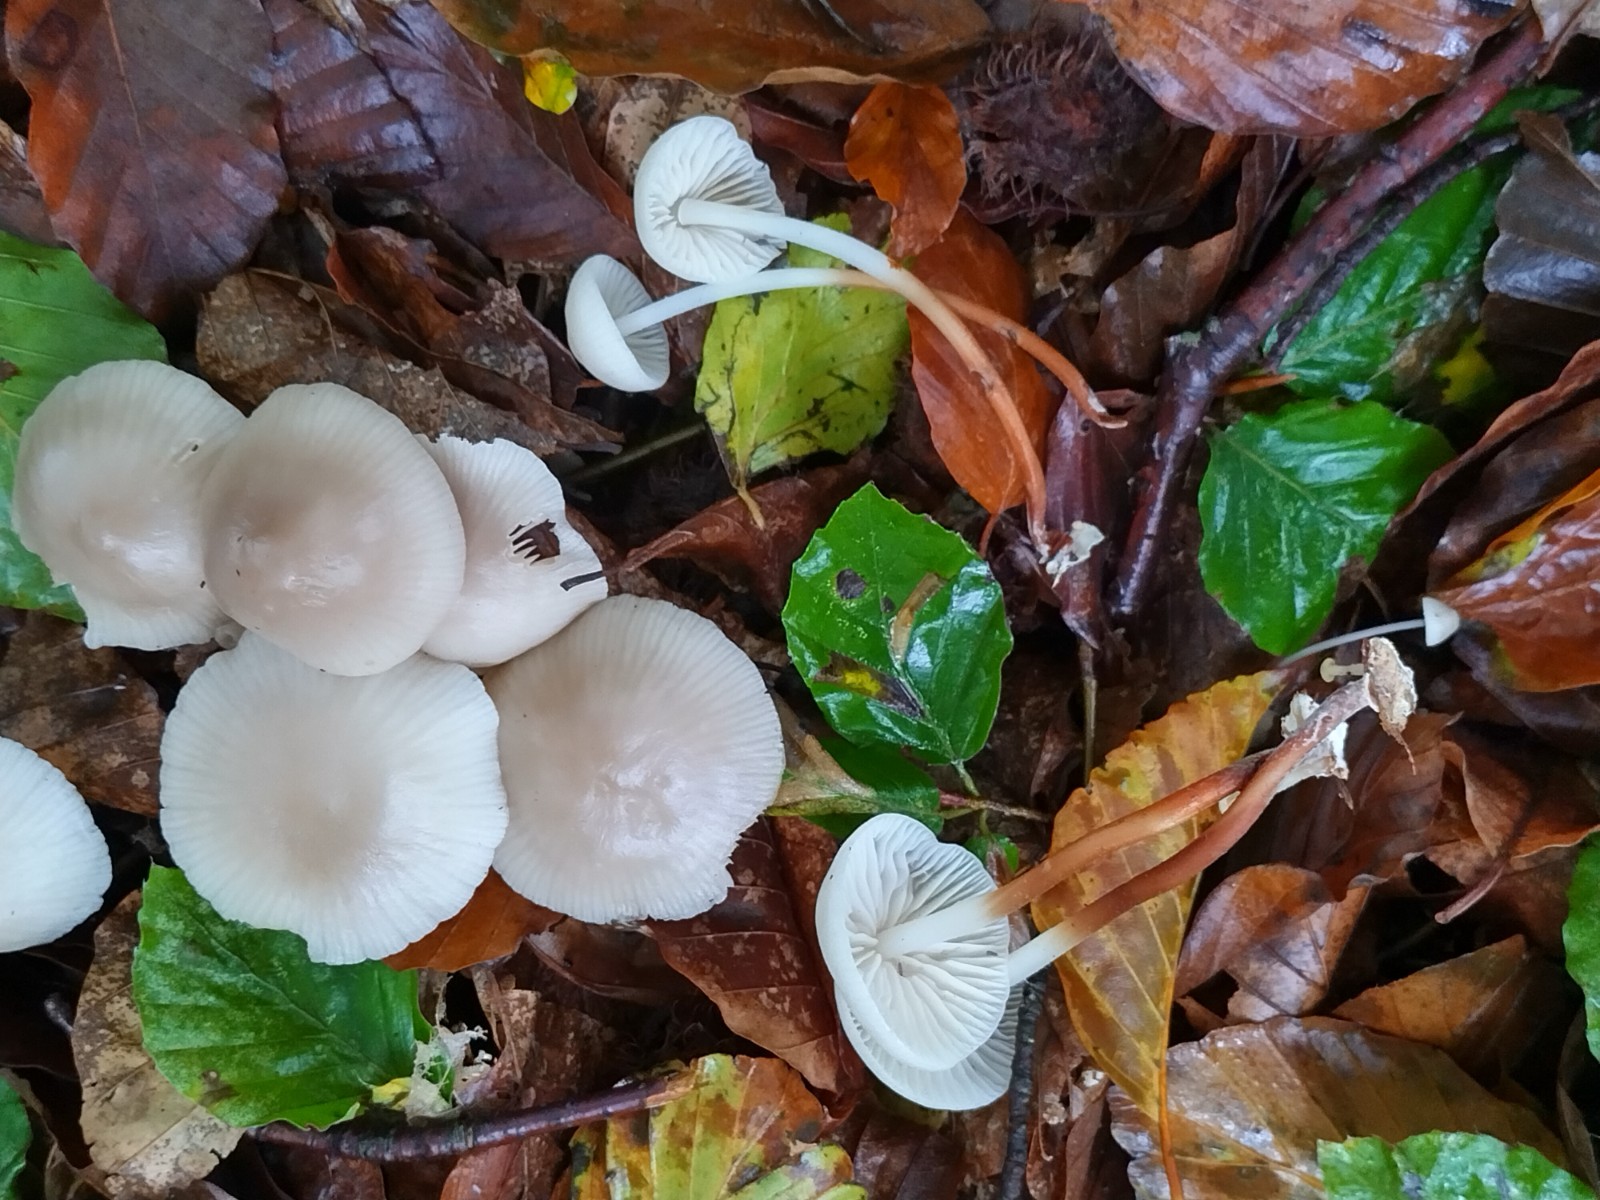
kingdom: Fungi
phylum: Basidiomycota
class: Agaricomycetes
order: Agaricales
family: Marasmiaceae
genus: Marasmius
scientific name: Marasmius wynneae
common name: hvælvet bruskhat
